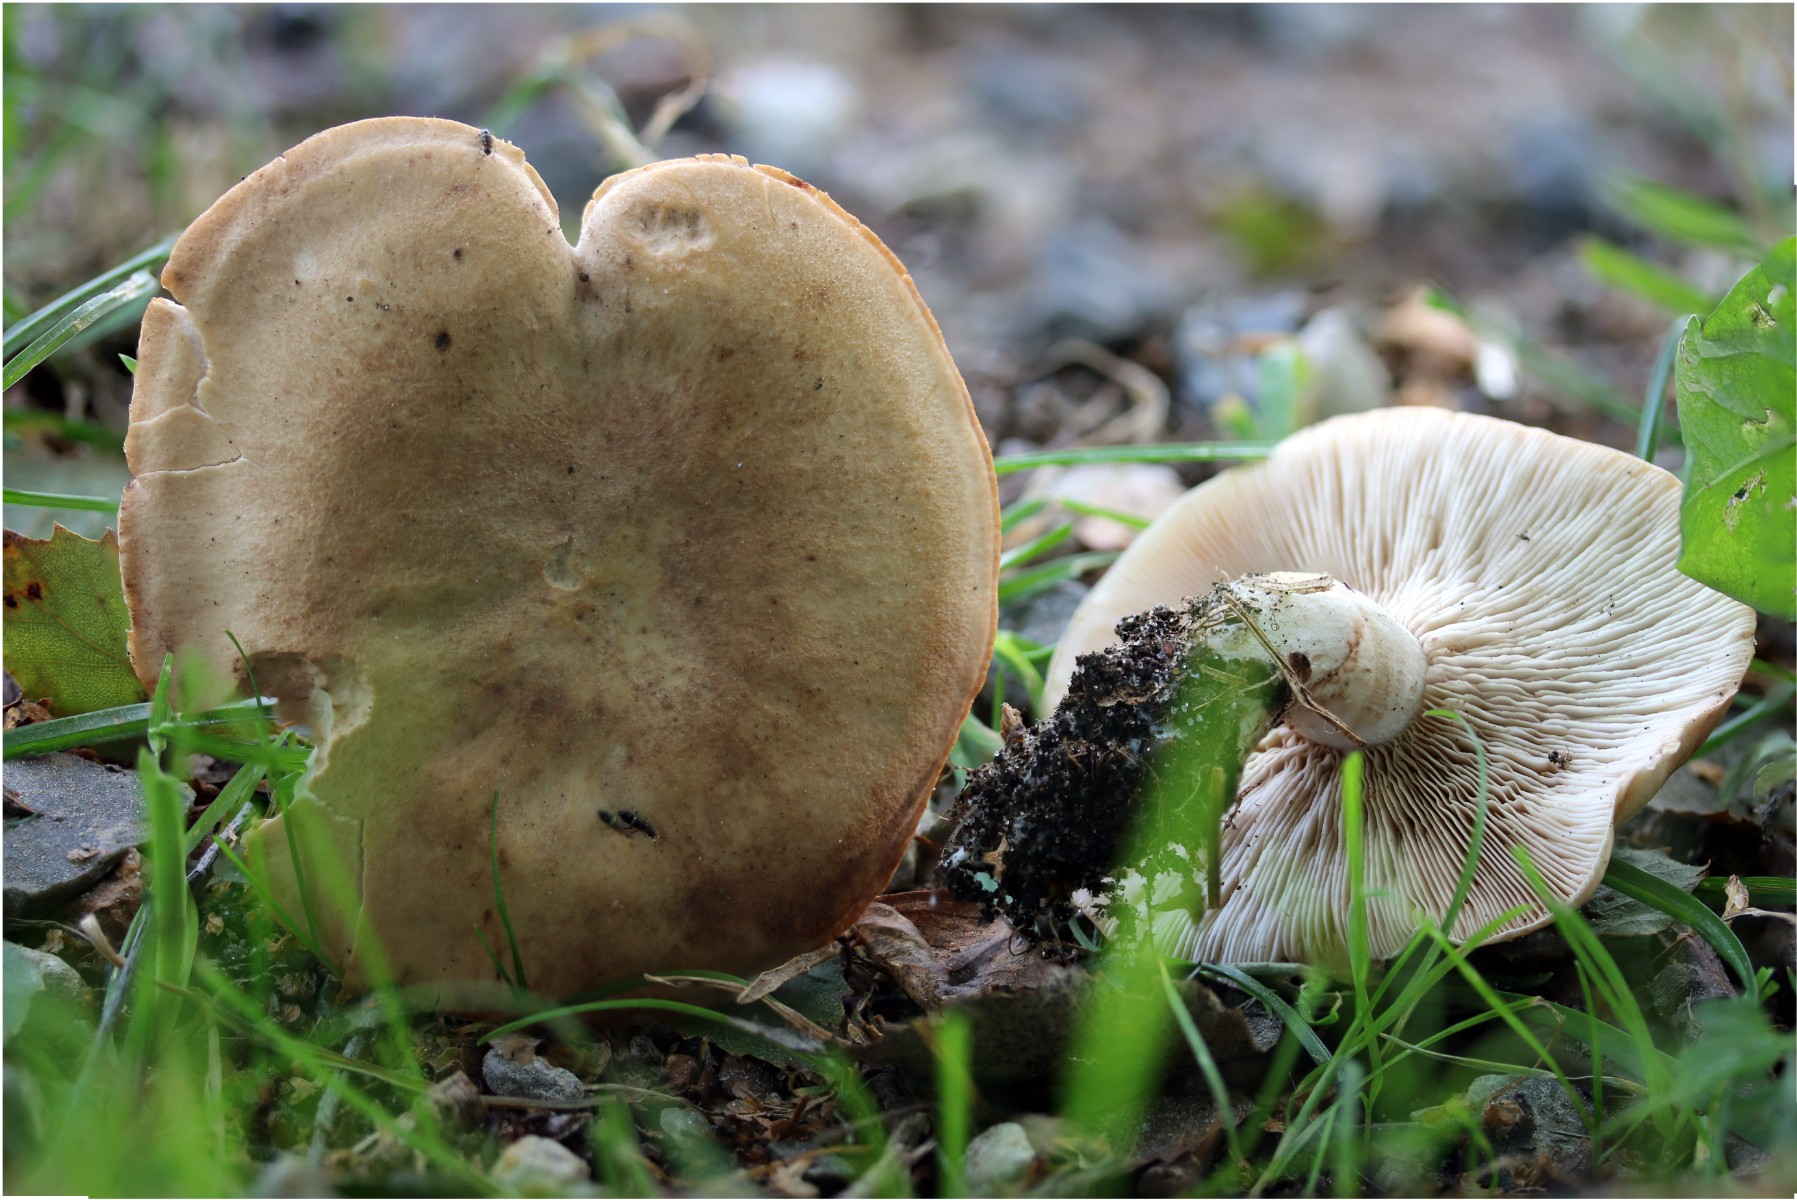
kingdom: Fungi
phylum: Basidiomycota
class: Agaricomycetes
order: Agaricales
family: Entolomataceae
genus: Clitopilus
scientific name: Clitopilus geminus
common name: kødfarvet troldhat
